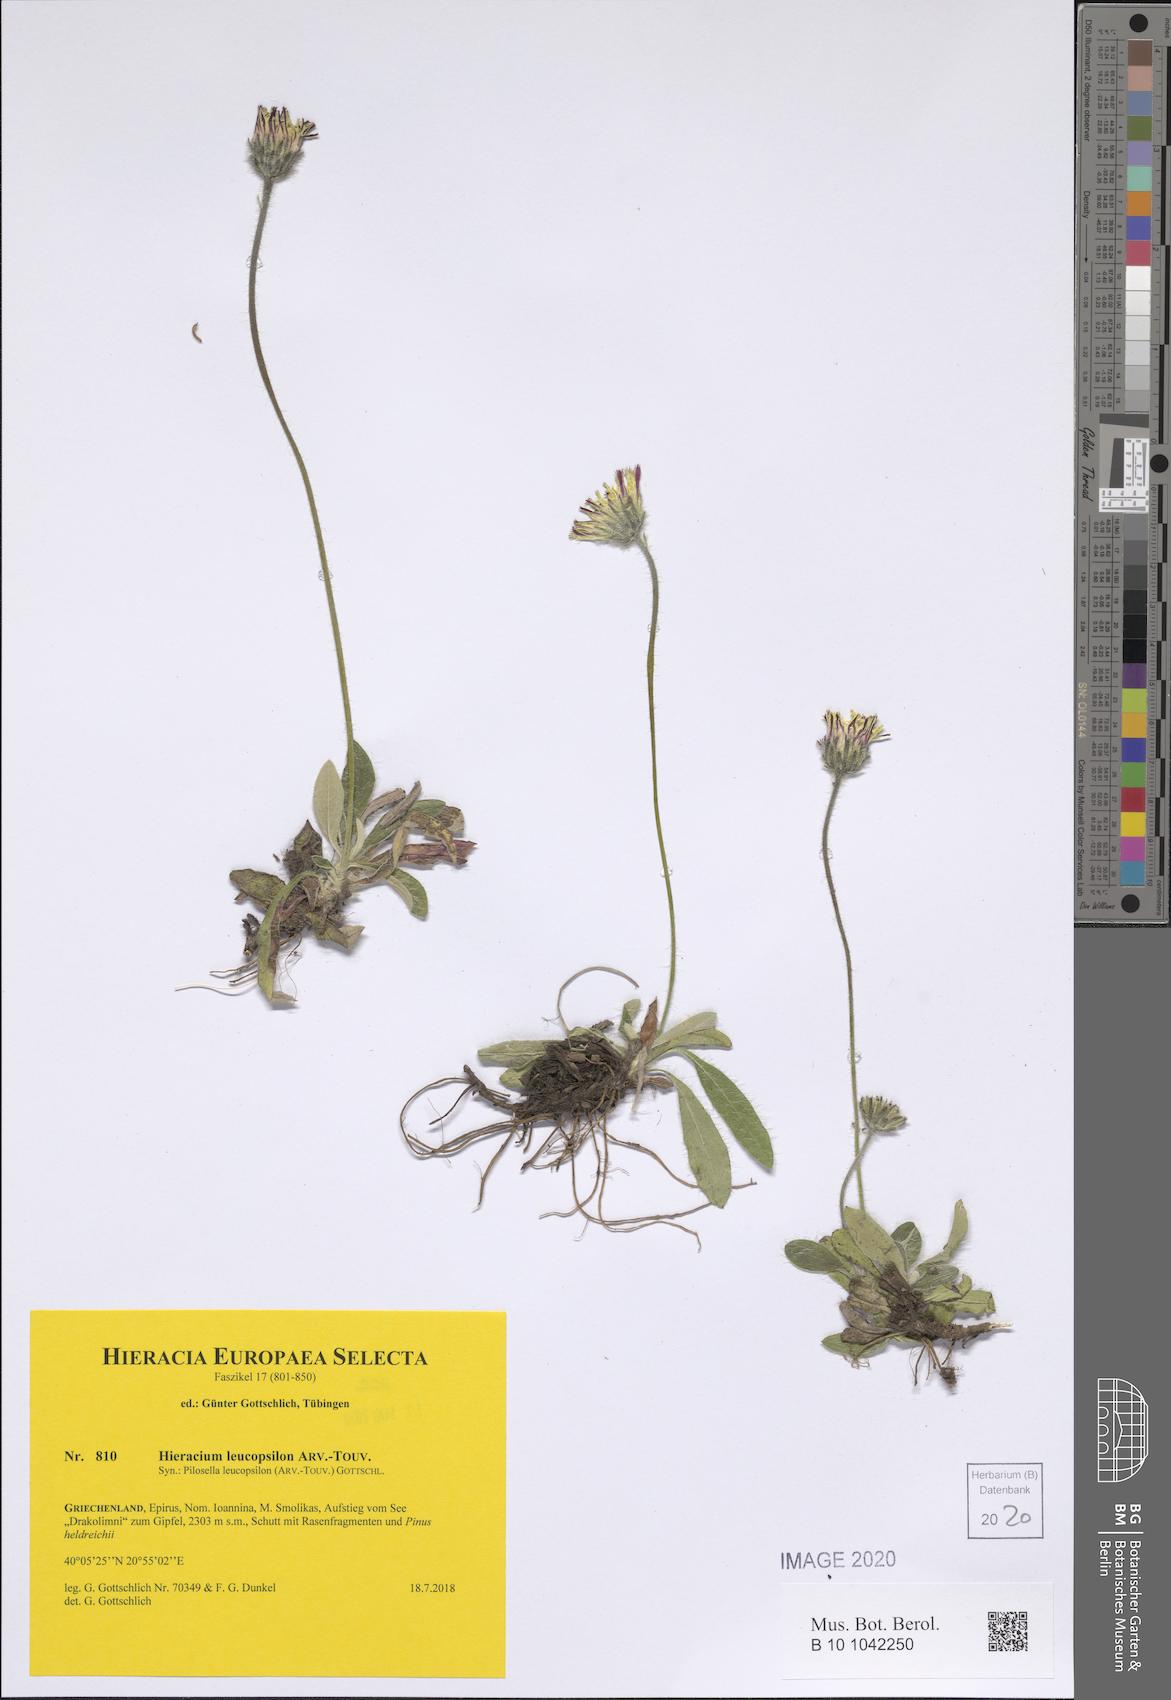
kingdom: Plantae
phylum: Tracheophyta
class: Magnoliopsida
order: Asterales
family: Asteraceae
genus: Pilosella
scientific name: Pilosella leucopsilon
